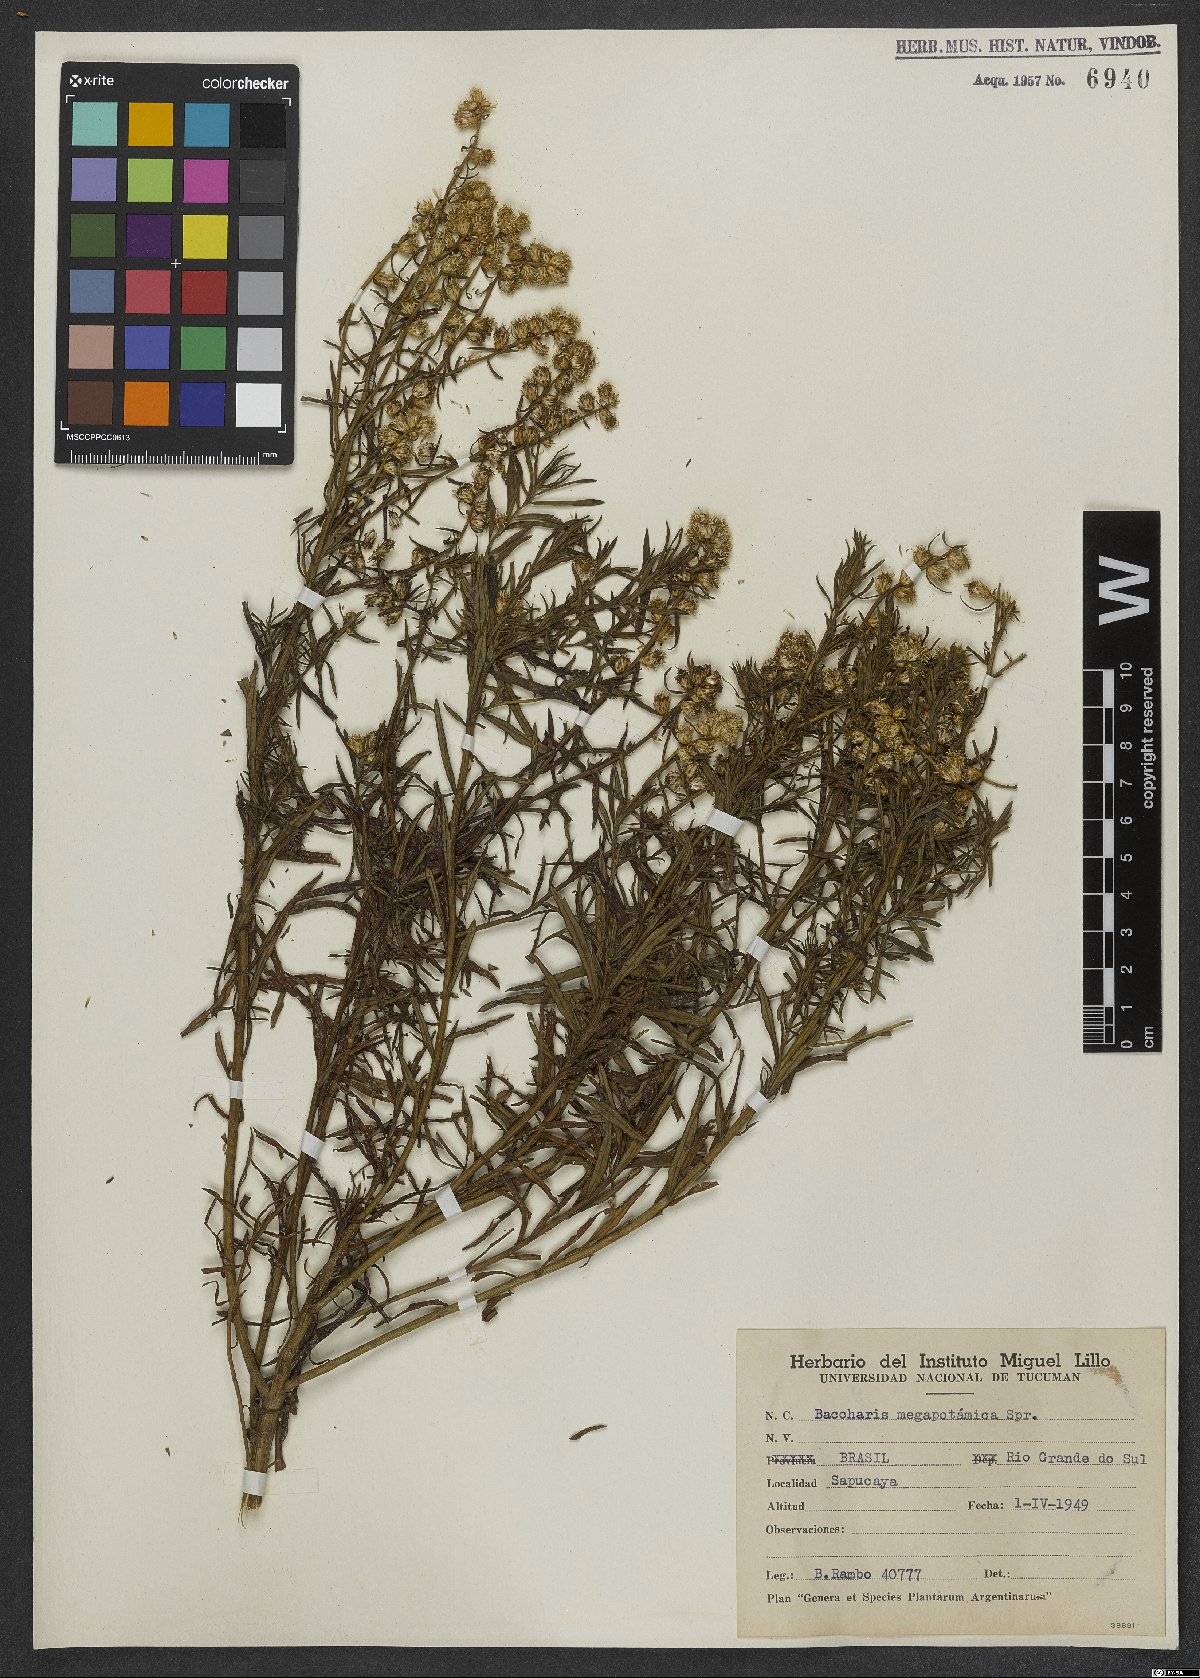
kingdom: Plantae
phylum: Tracheophyta
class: Magnoliopsida
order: Asterales
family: Asteraceae
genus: Baccharis
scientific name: Baccharis megapotamica
